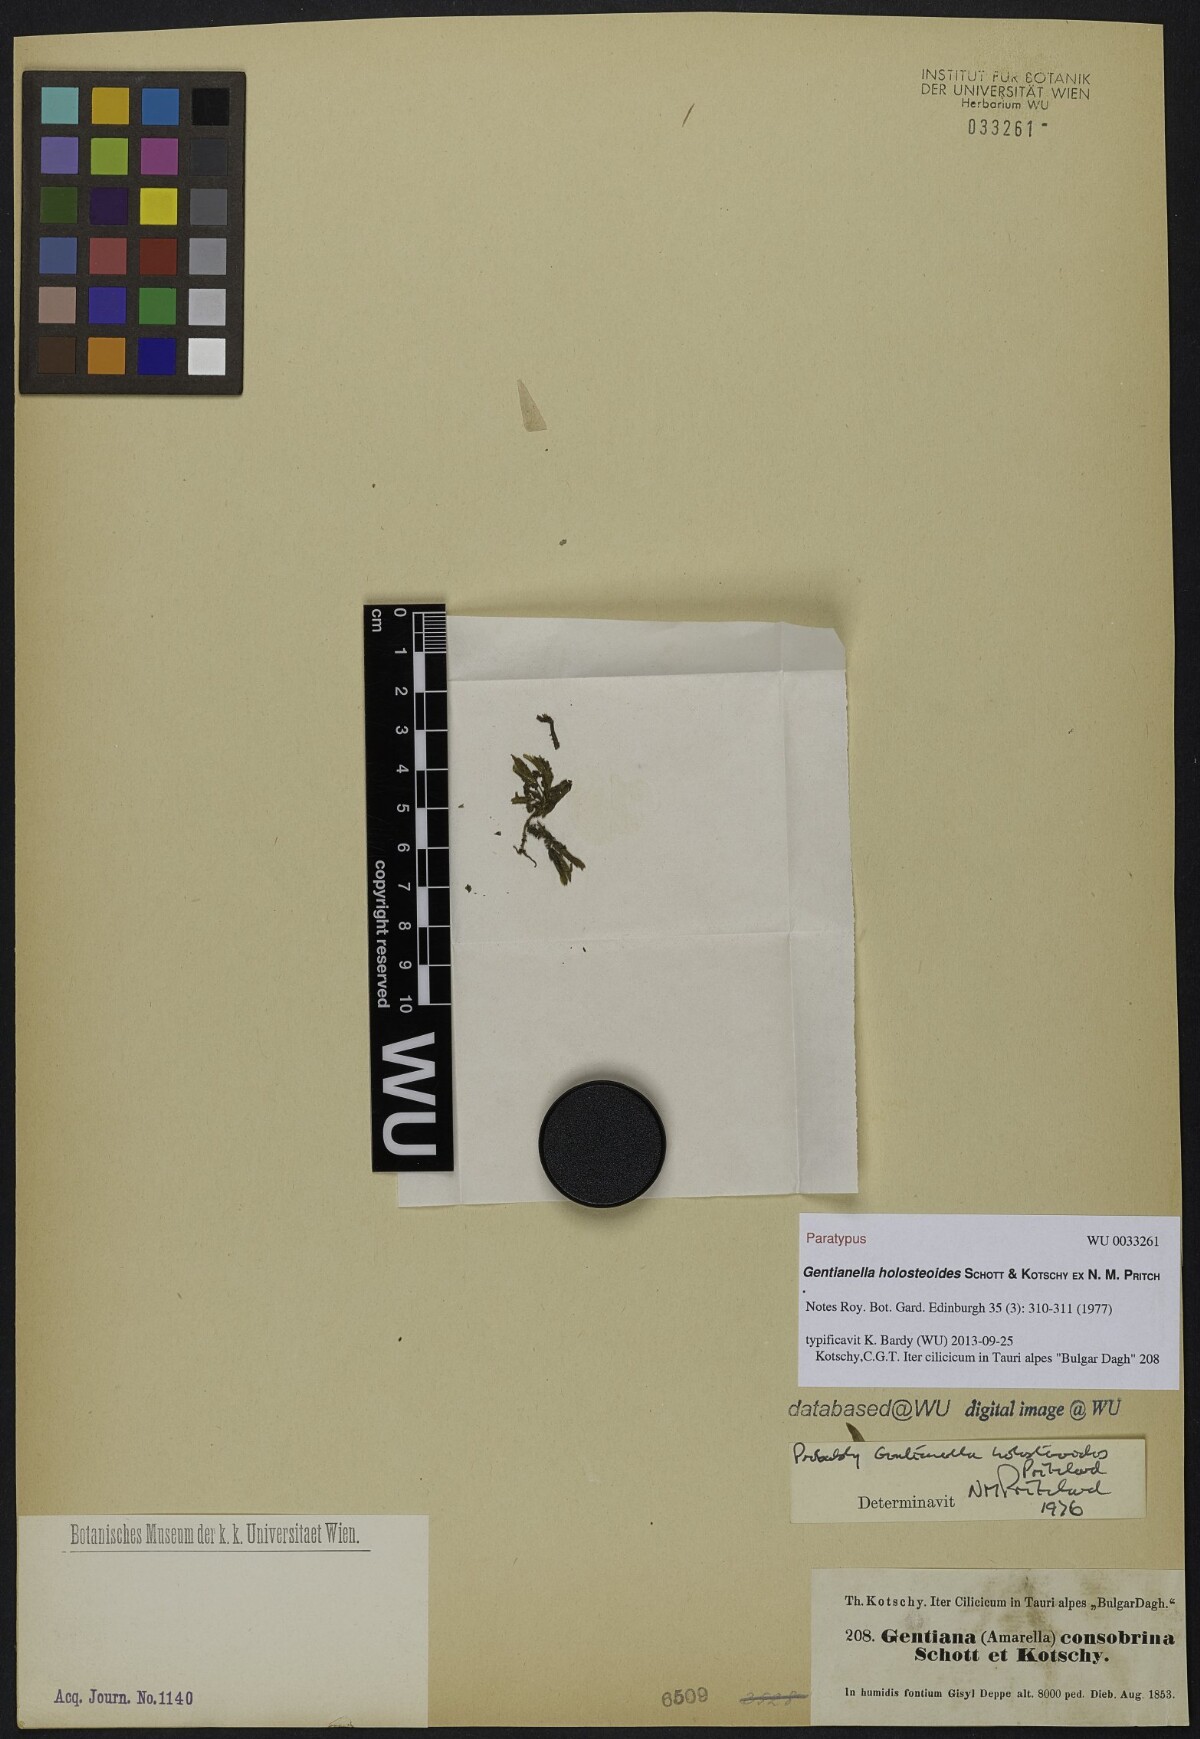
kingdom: Plantae
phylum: Tracheophyta
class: Magnoliopsida
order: Gentianales
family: Gentianaceae
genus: Gentianella
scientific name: Gentianella holosteoides
